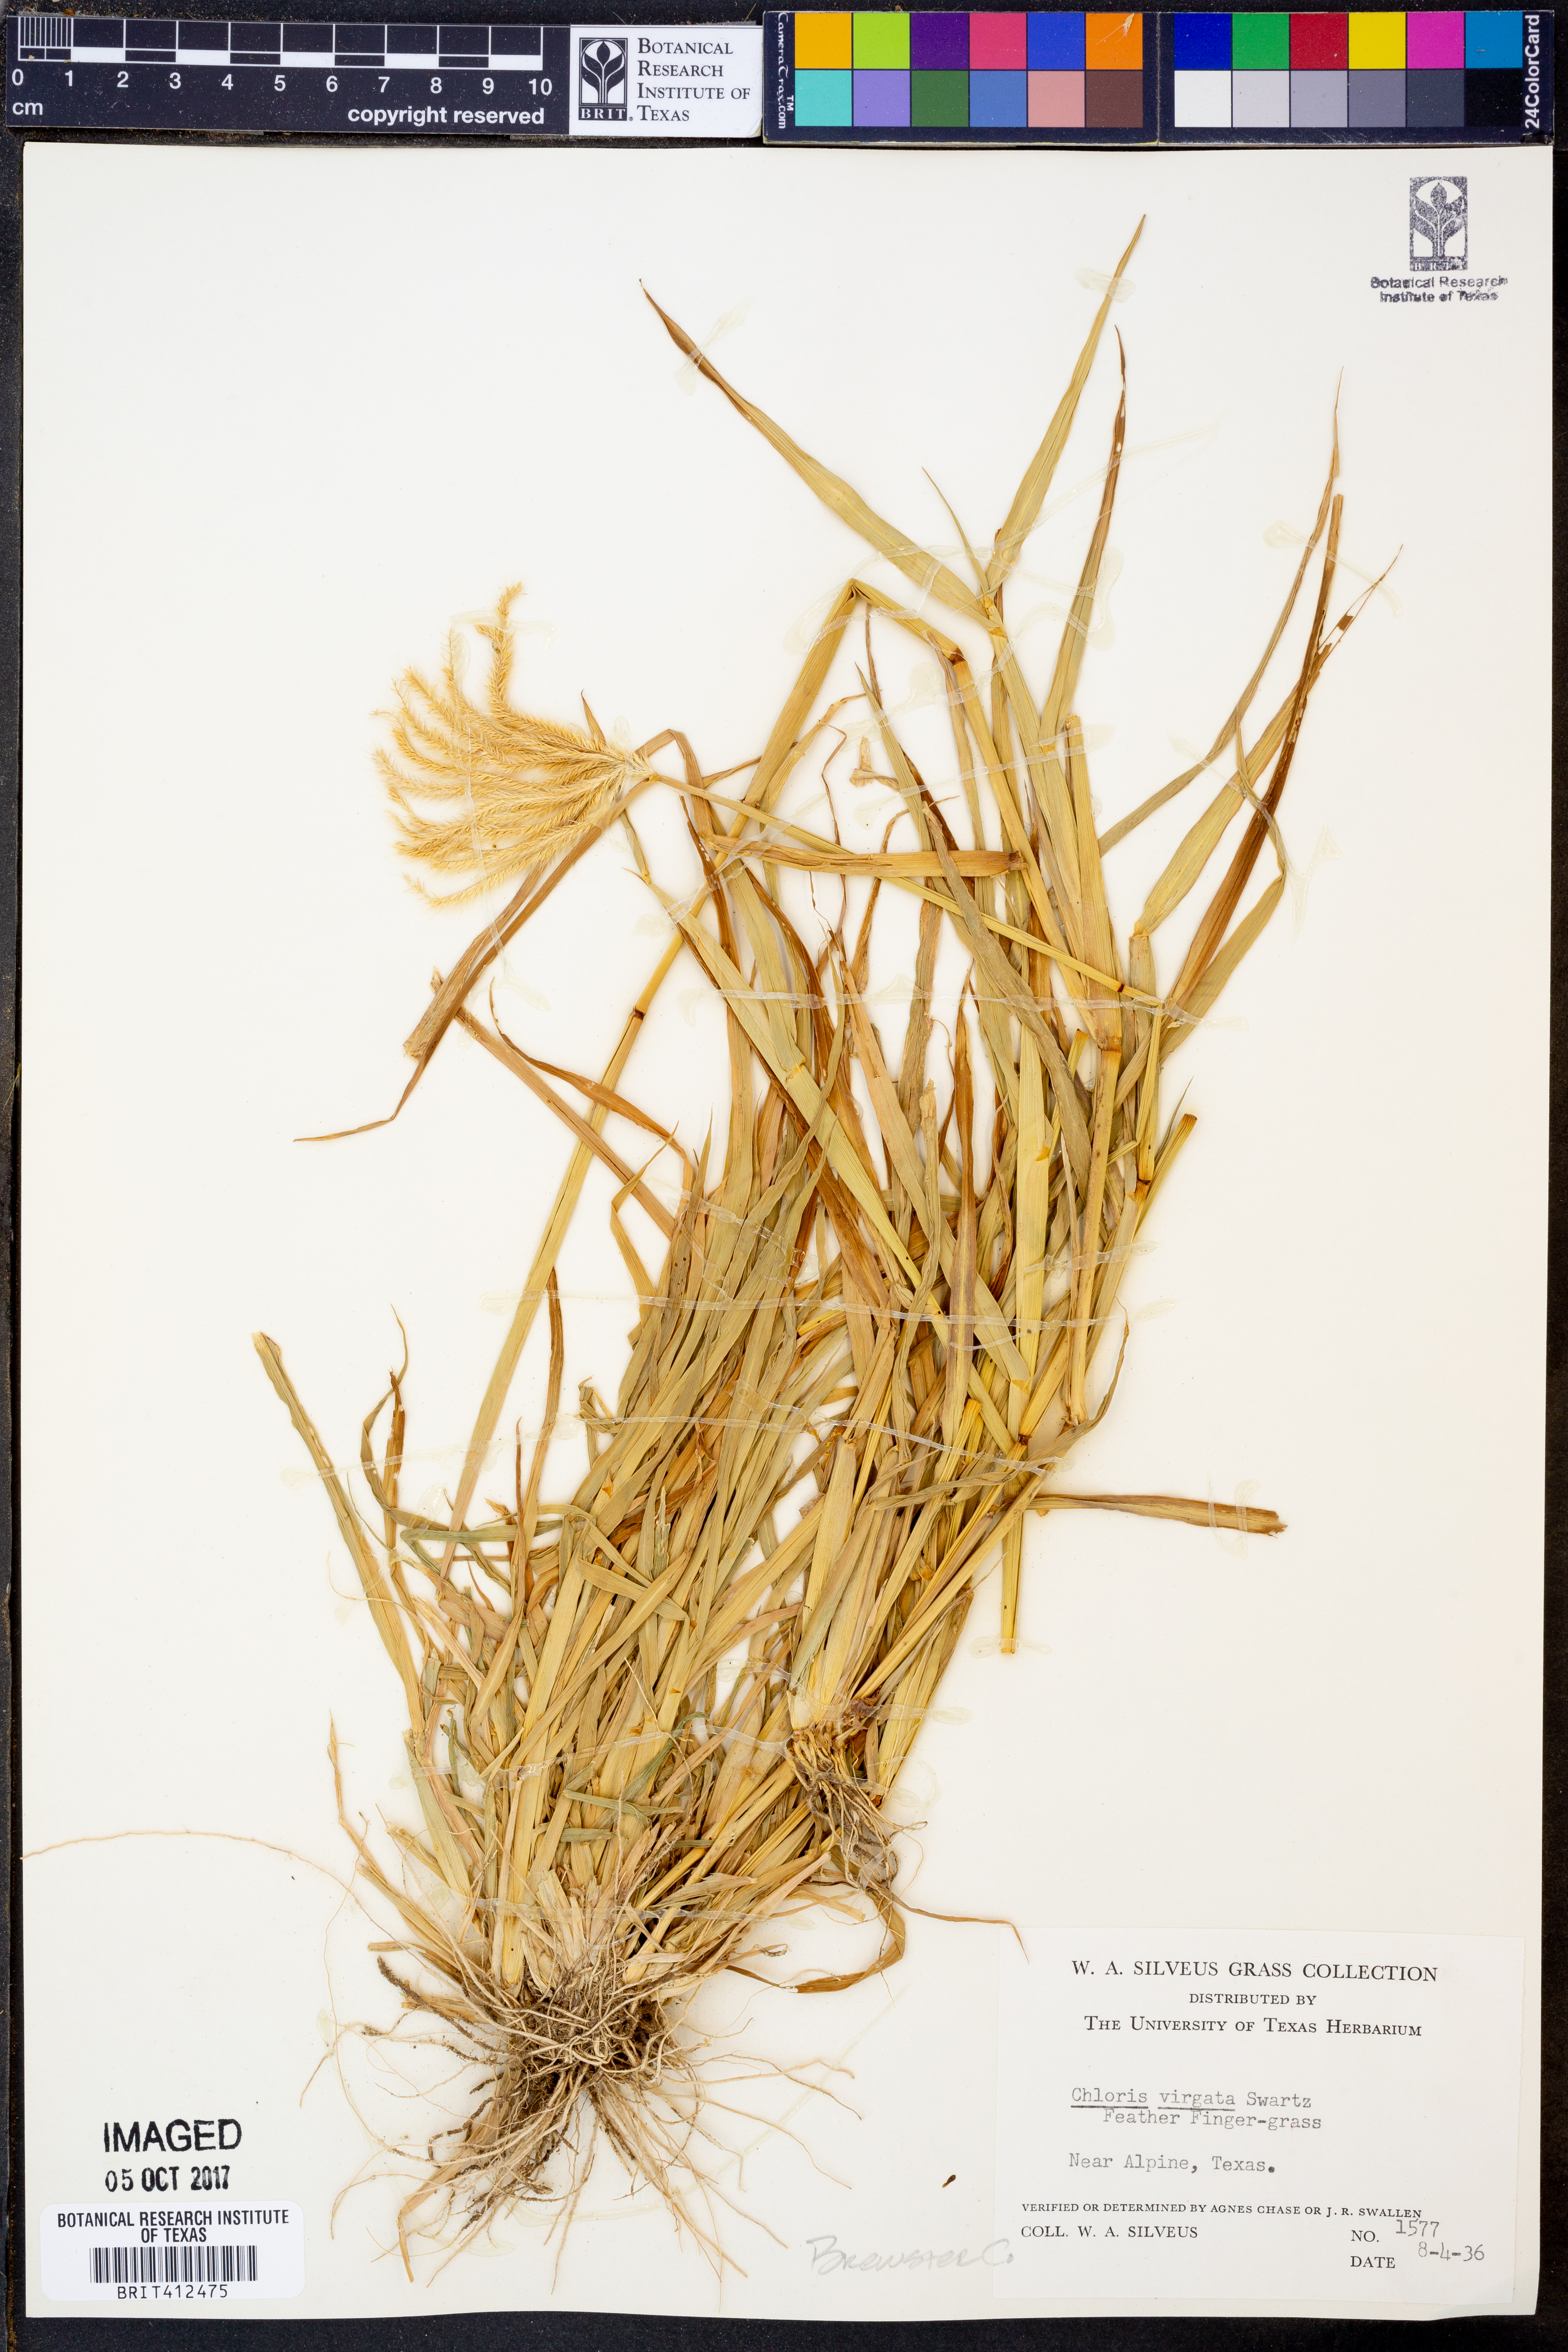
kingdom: Plantae
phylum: Tracheophyta
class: Liliopsida
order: Poales
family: Poaceae
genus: Chloris
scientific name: Chloris virgata
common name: Feathery rhodes-grass
